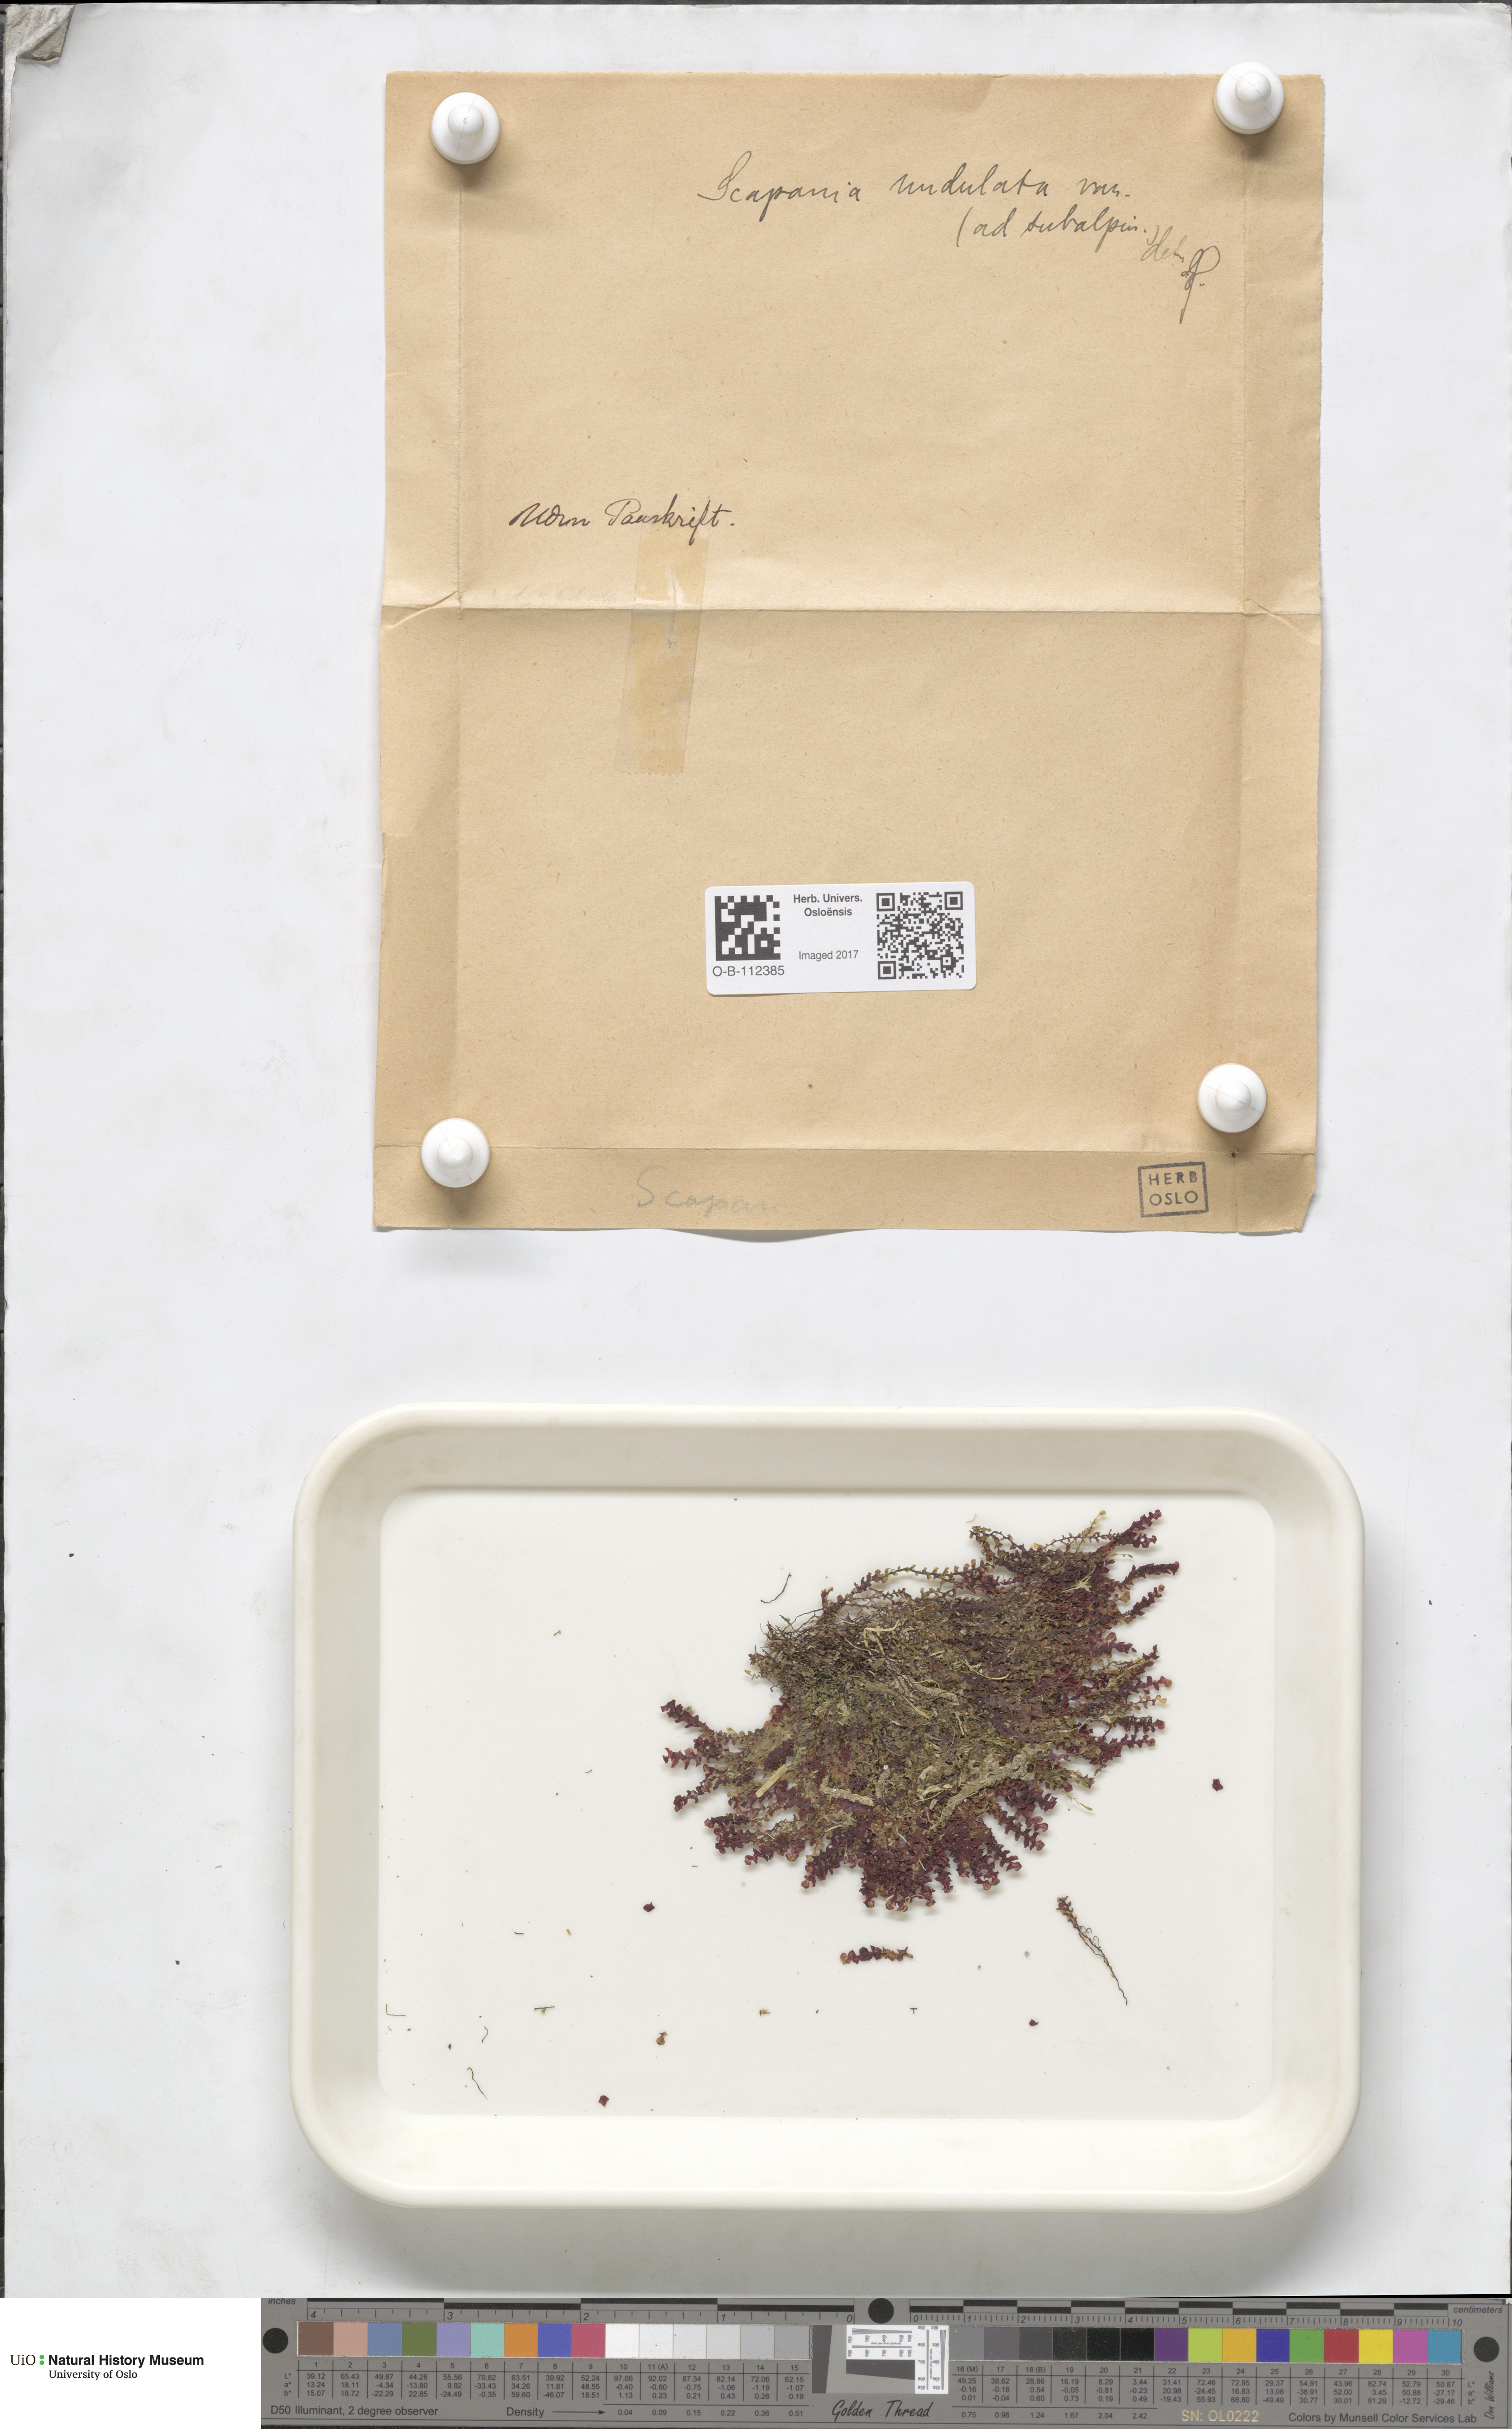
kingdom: Plantae
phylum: Marchantiophyta
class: Jungermanniopsida
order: Jungermanniales
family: Scapaniaceae
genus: Scapania
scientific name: Scapania undulata
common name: Water earwort
